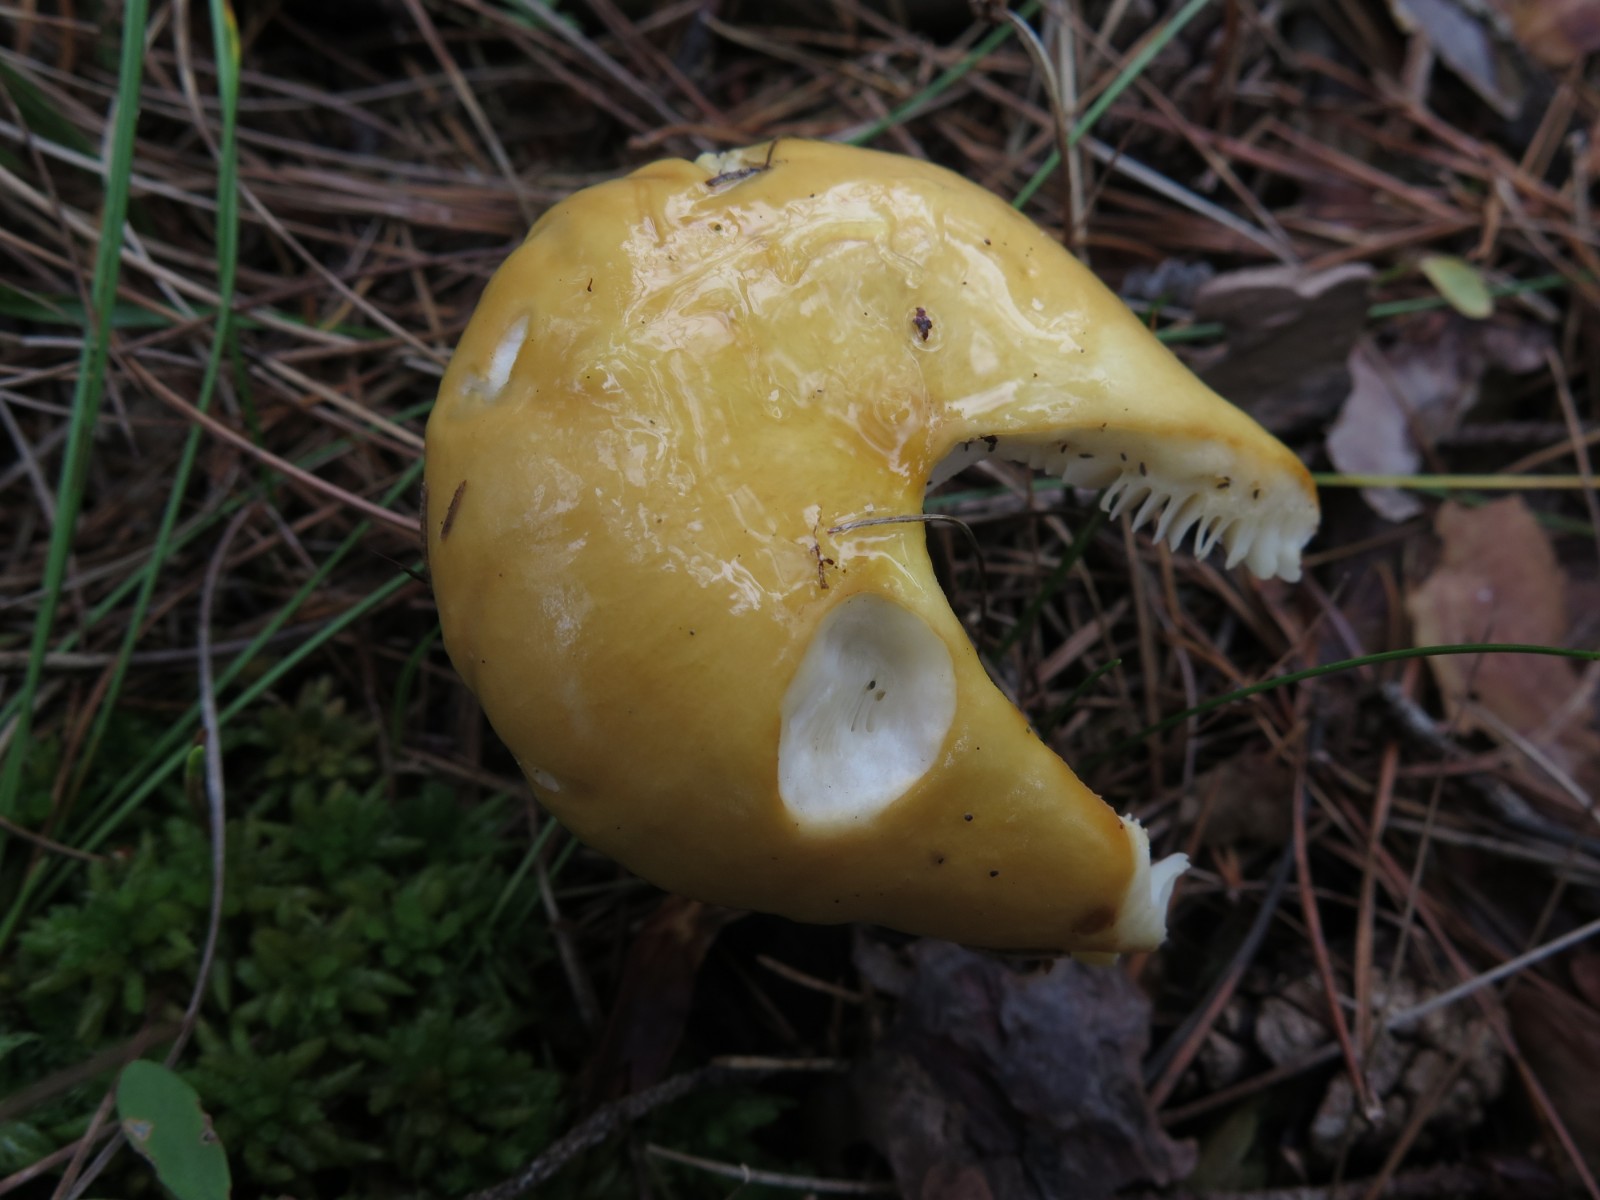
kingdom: Fungi
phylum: Basidiomycota
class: Agaricomycetes
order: Russulales
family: Russulaceae
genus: Russula
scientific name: Russula ochroleuca
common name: okkergul skørhat
